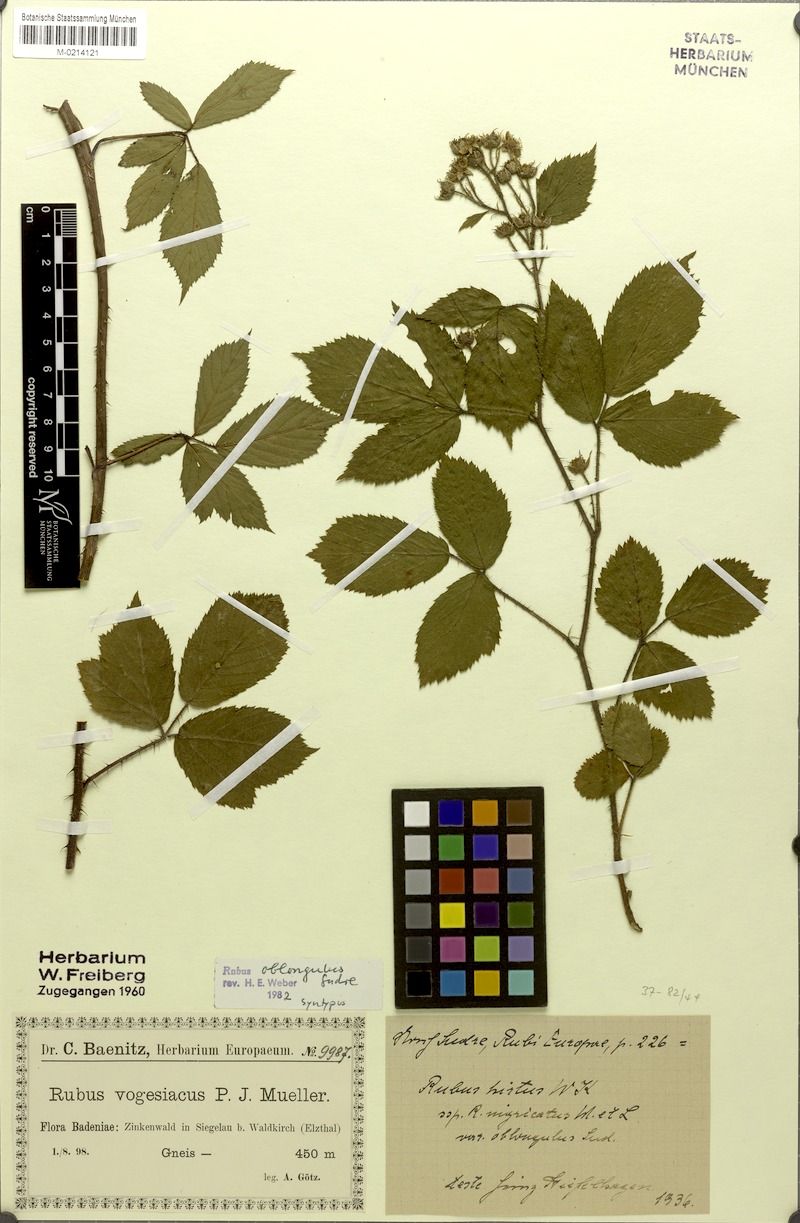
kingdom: Plantae
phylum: Tracheophyta
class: Magnoliopsida
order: Rosales
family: Rosaceae
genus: Rubus
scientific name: Rubus oblongulus
